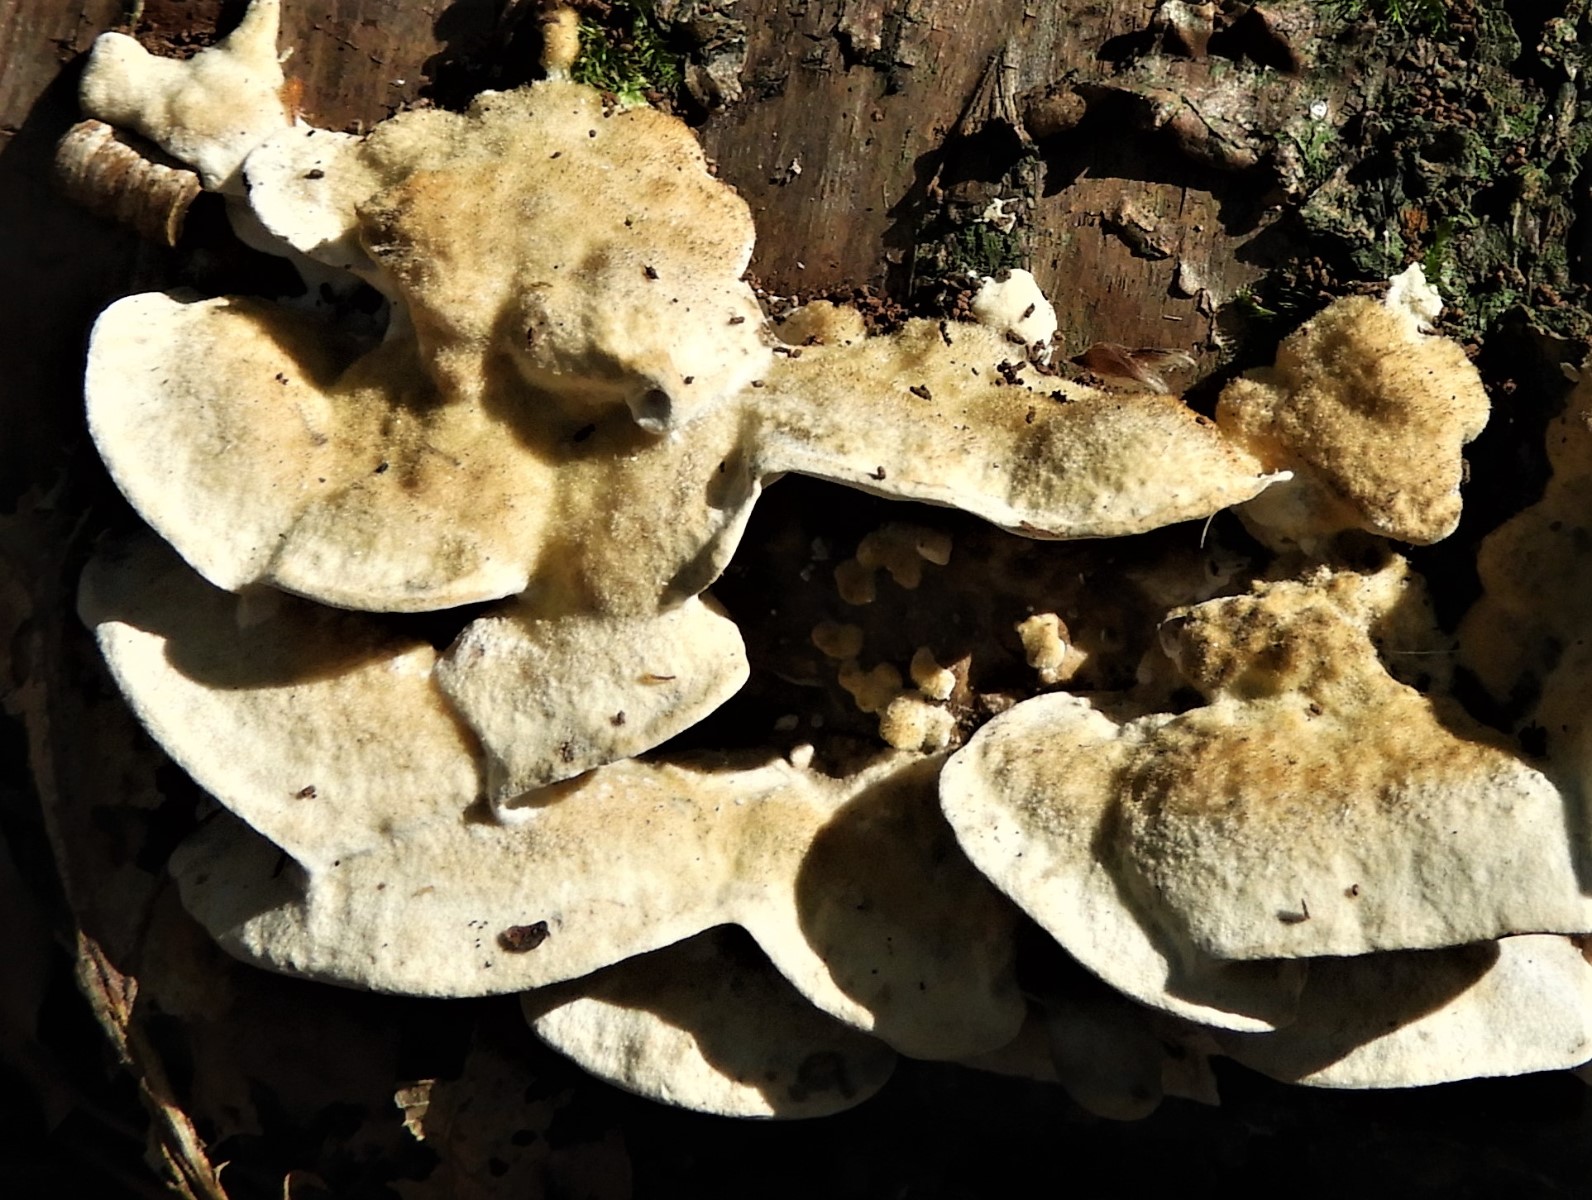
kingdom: Fungi
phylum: Basidiomycota
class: Agaricomycetes
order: Polyporales
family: Phanerochaetaceae
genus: Bjerkandera
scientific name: Bjerkandera
